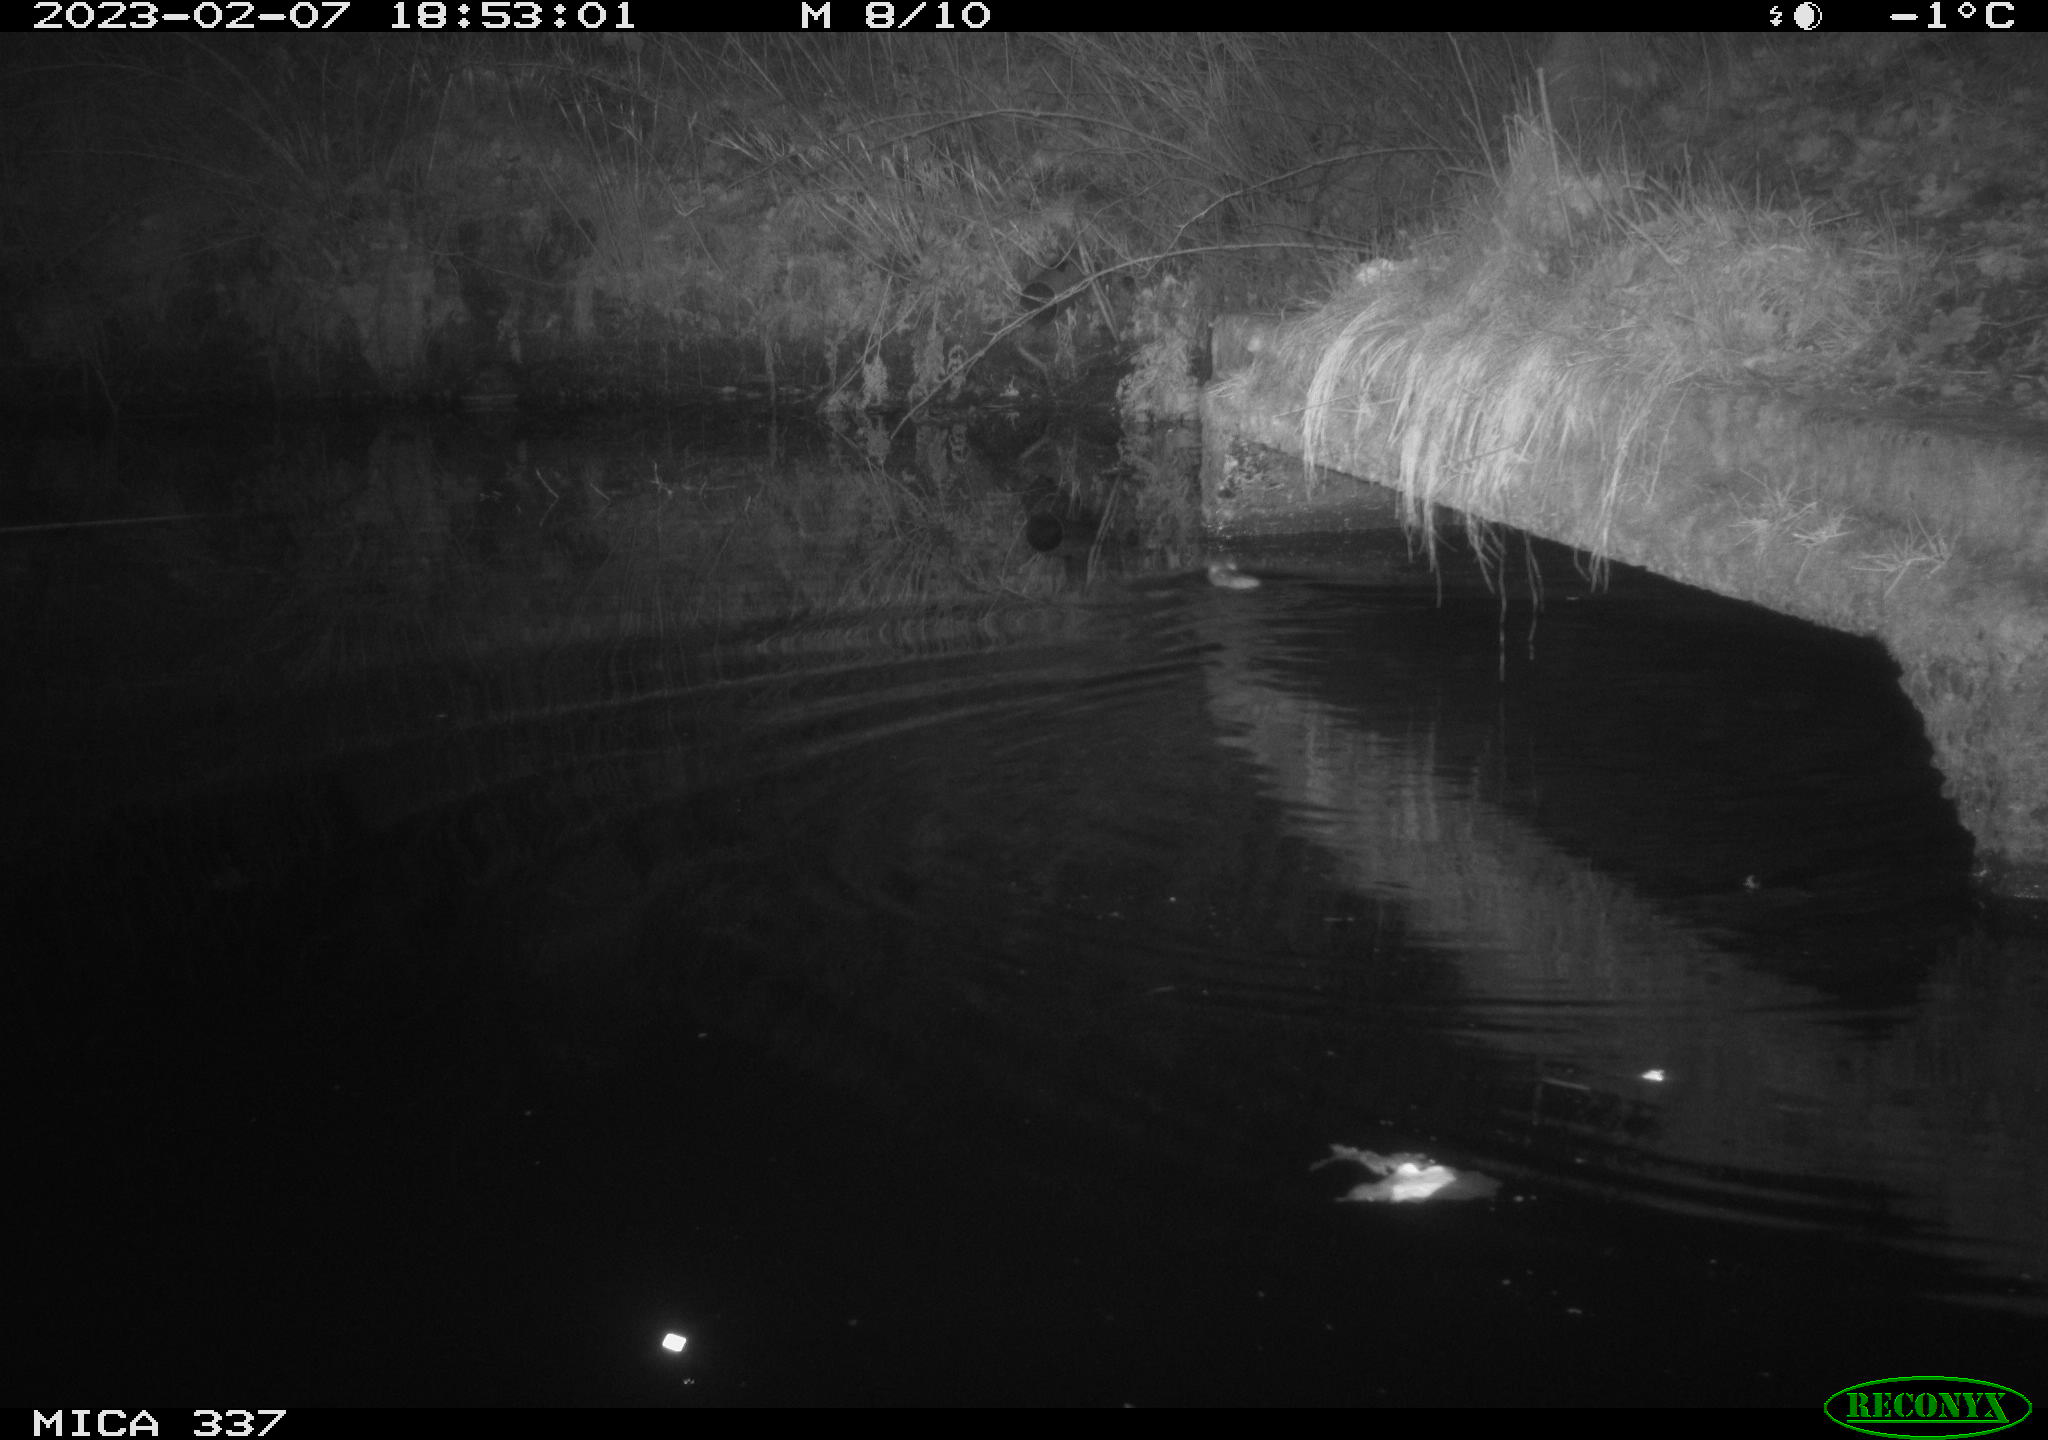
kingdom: Animalia
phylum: Chordata
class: Mammalia
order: Rodentia
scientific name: Rodentia
